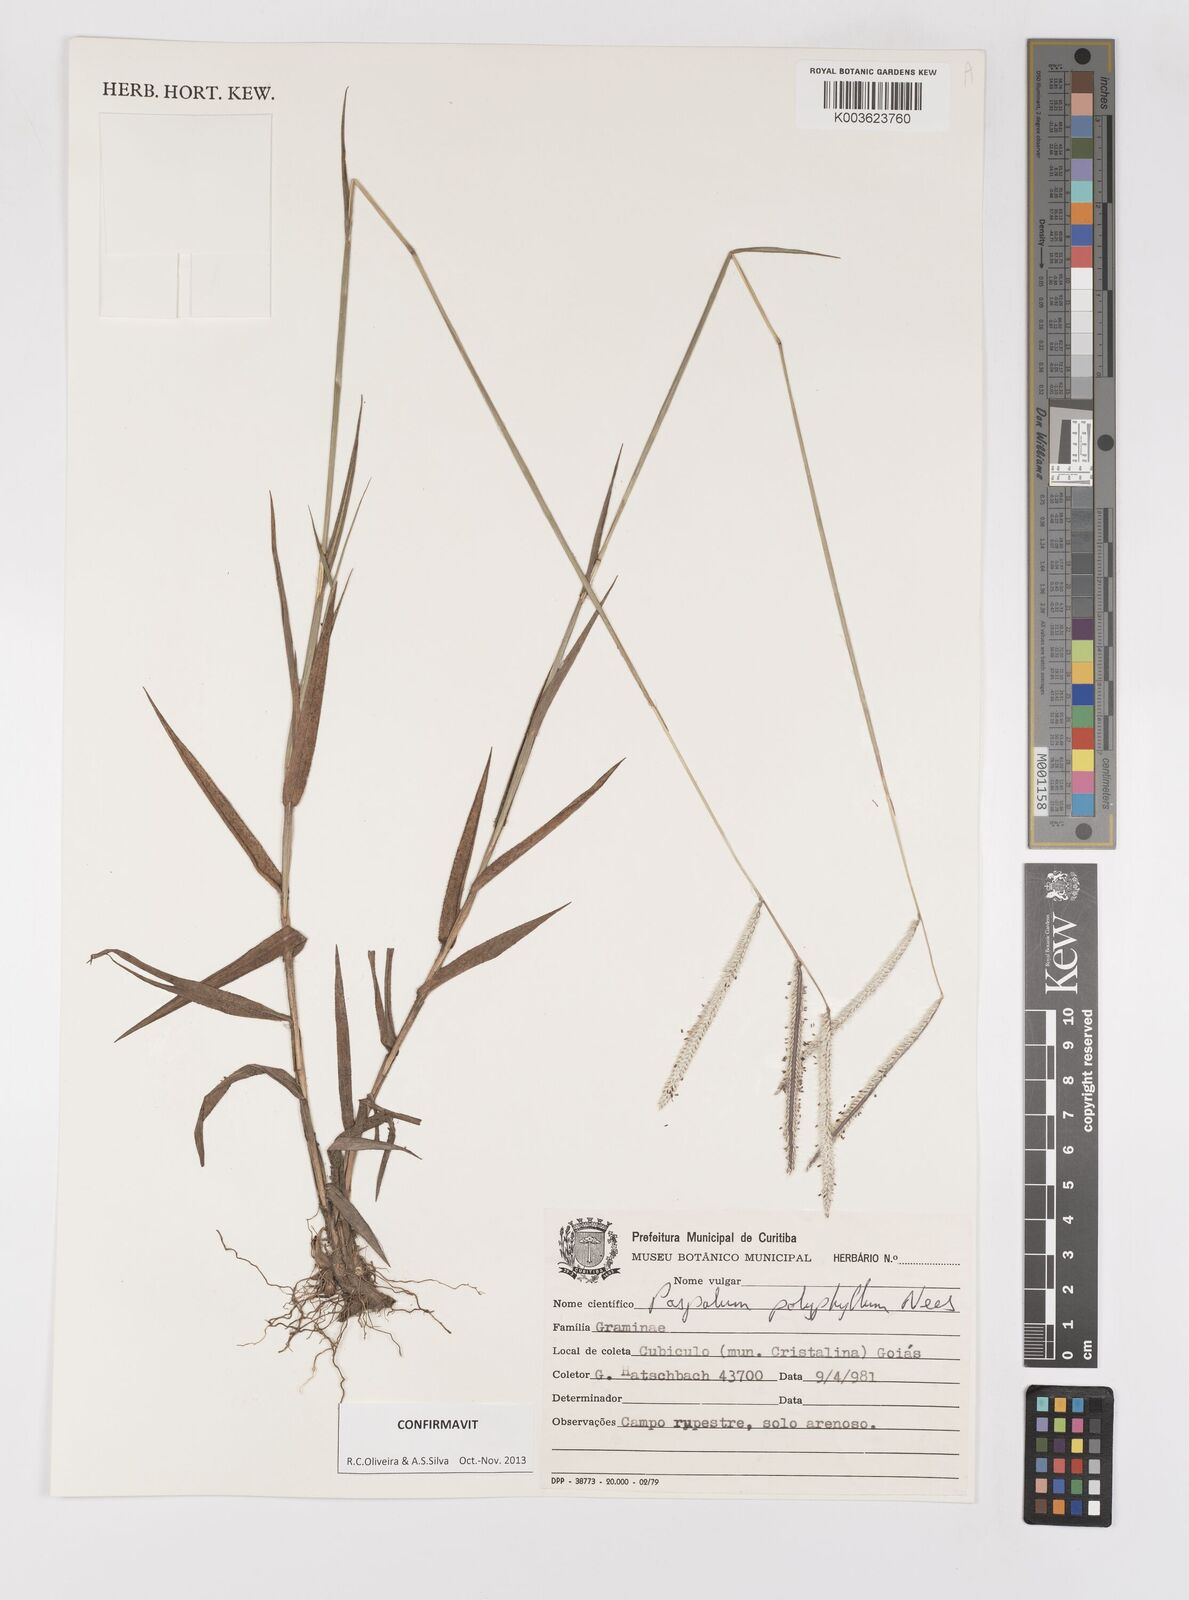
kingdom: Plantae
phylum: Tracheophyta
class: Liliopsida
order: Poales
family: Poaceae
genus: Paspalum
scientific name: Paspalum polyphyllum
